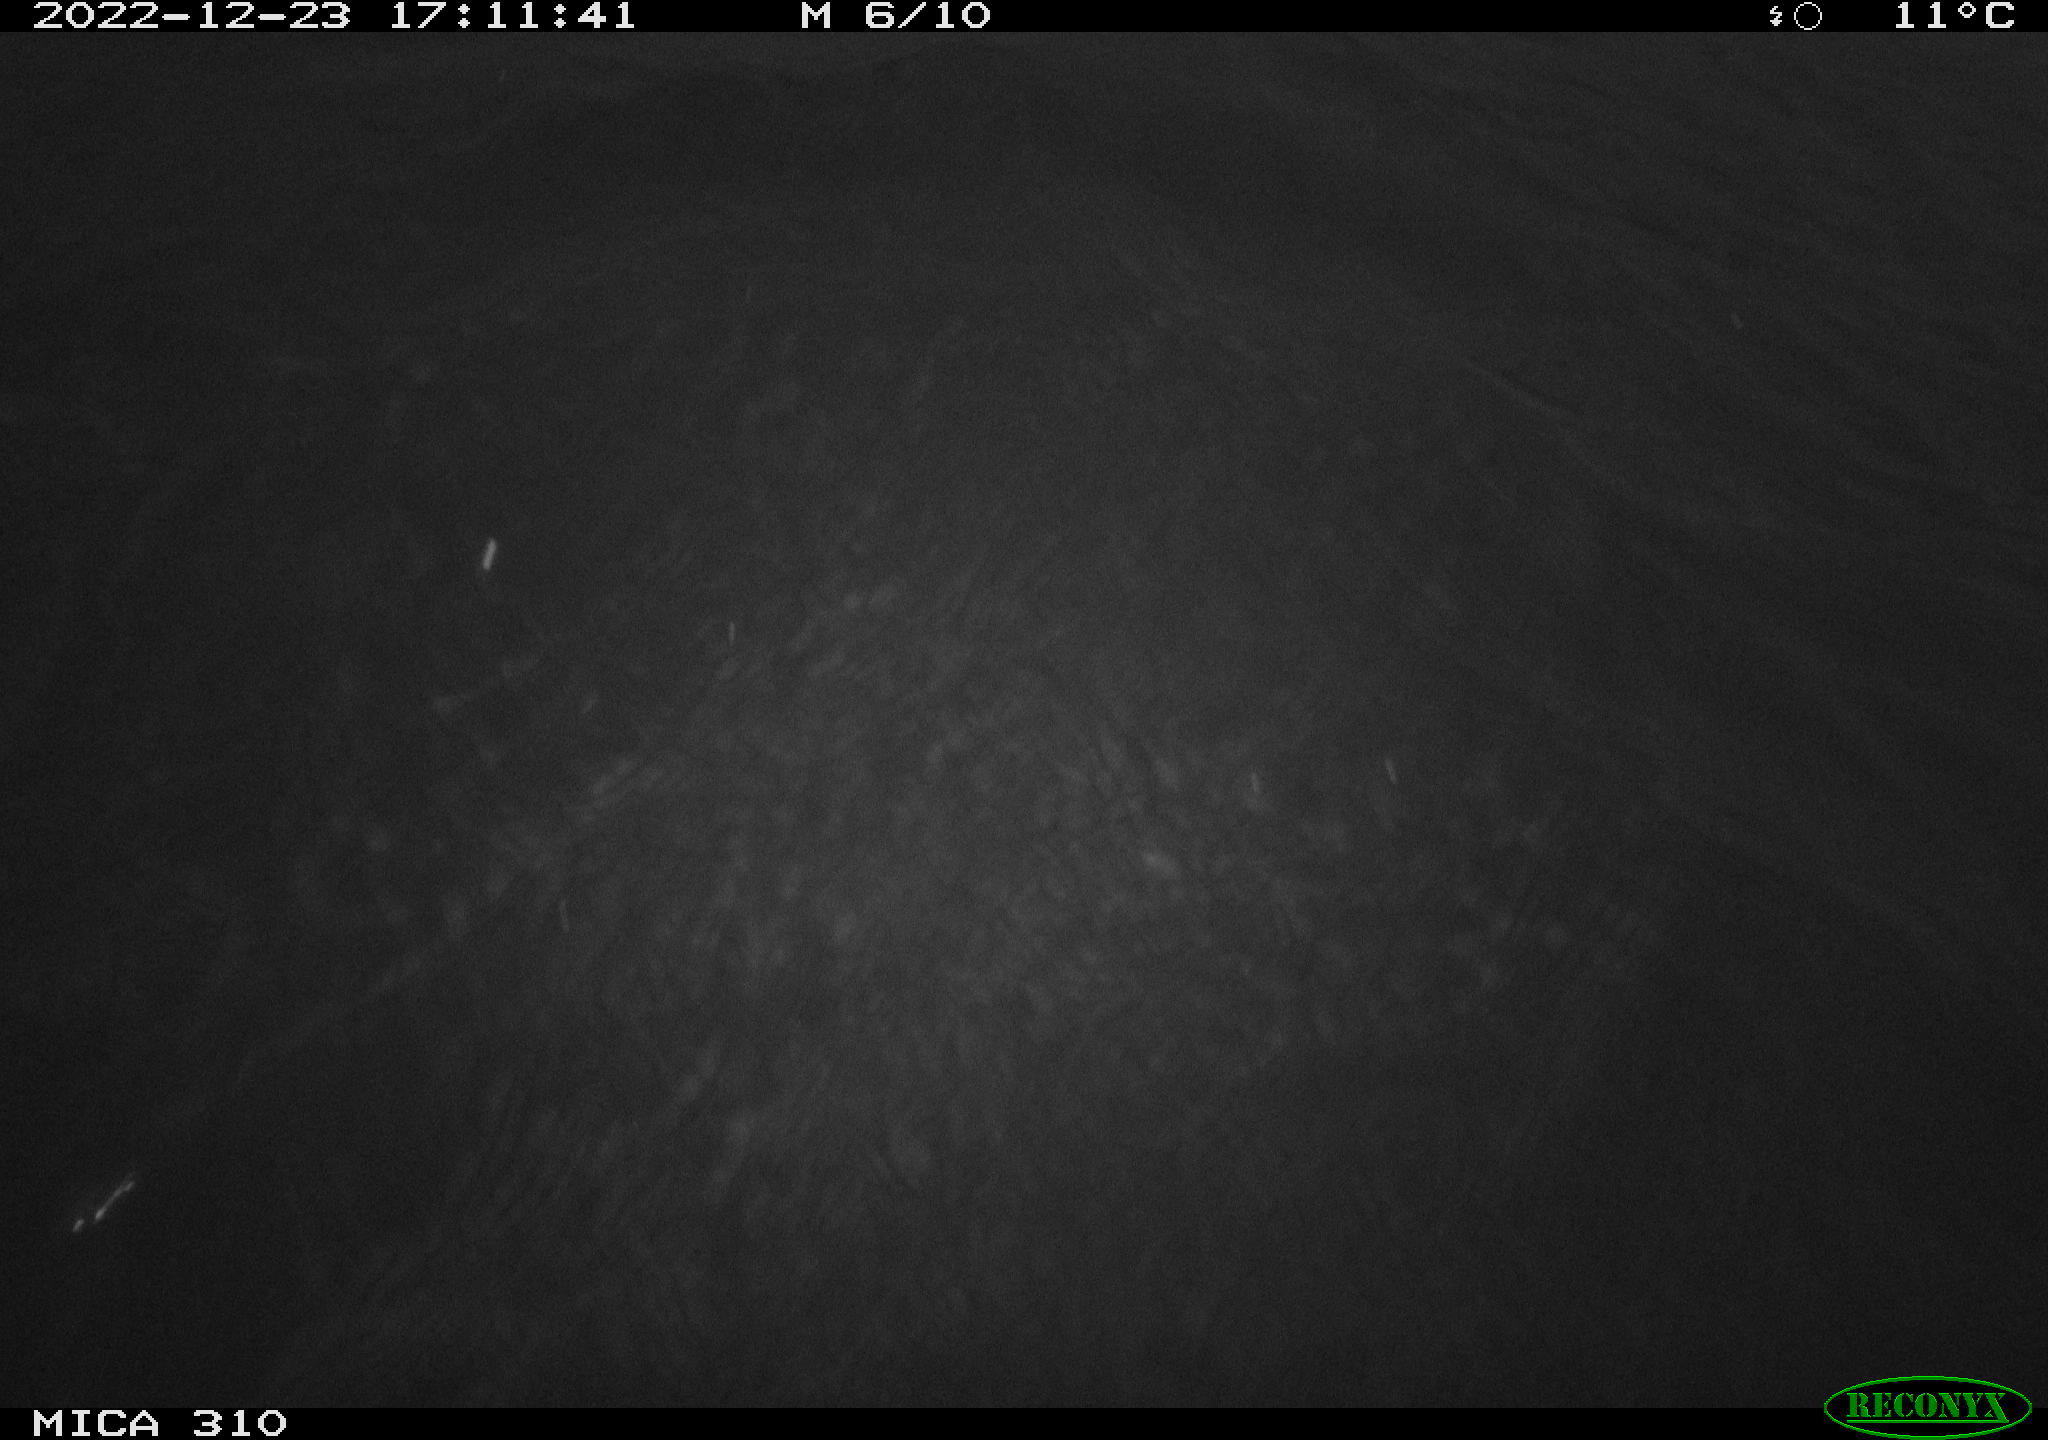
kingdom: Animalia
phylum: Chordata
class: Aves
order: Anseriformes
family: Anatidae
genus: Anas
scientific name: Anas
